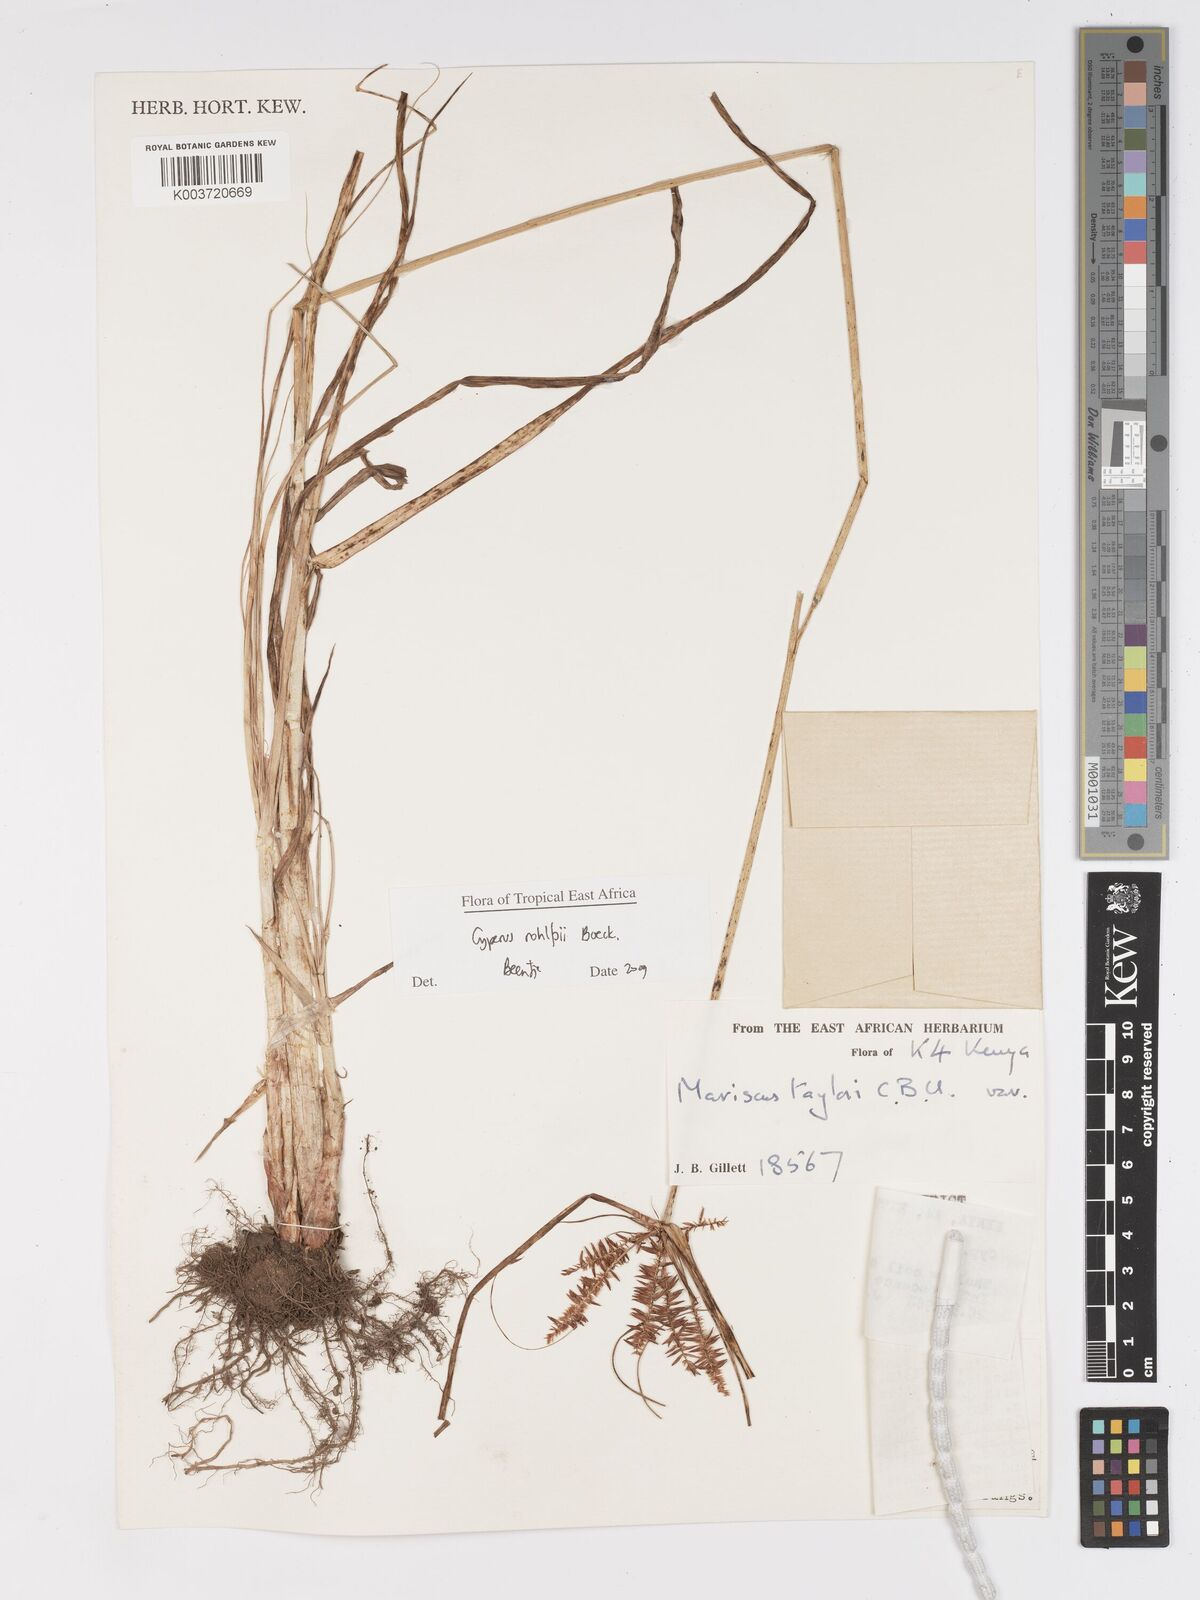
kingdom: Plantae
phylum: Tracheophyta
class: Liliopsida
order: Poales
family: Cyperaceae
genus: Cyperus
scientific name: Cyperus rohlfsii
